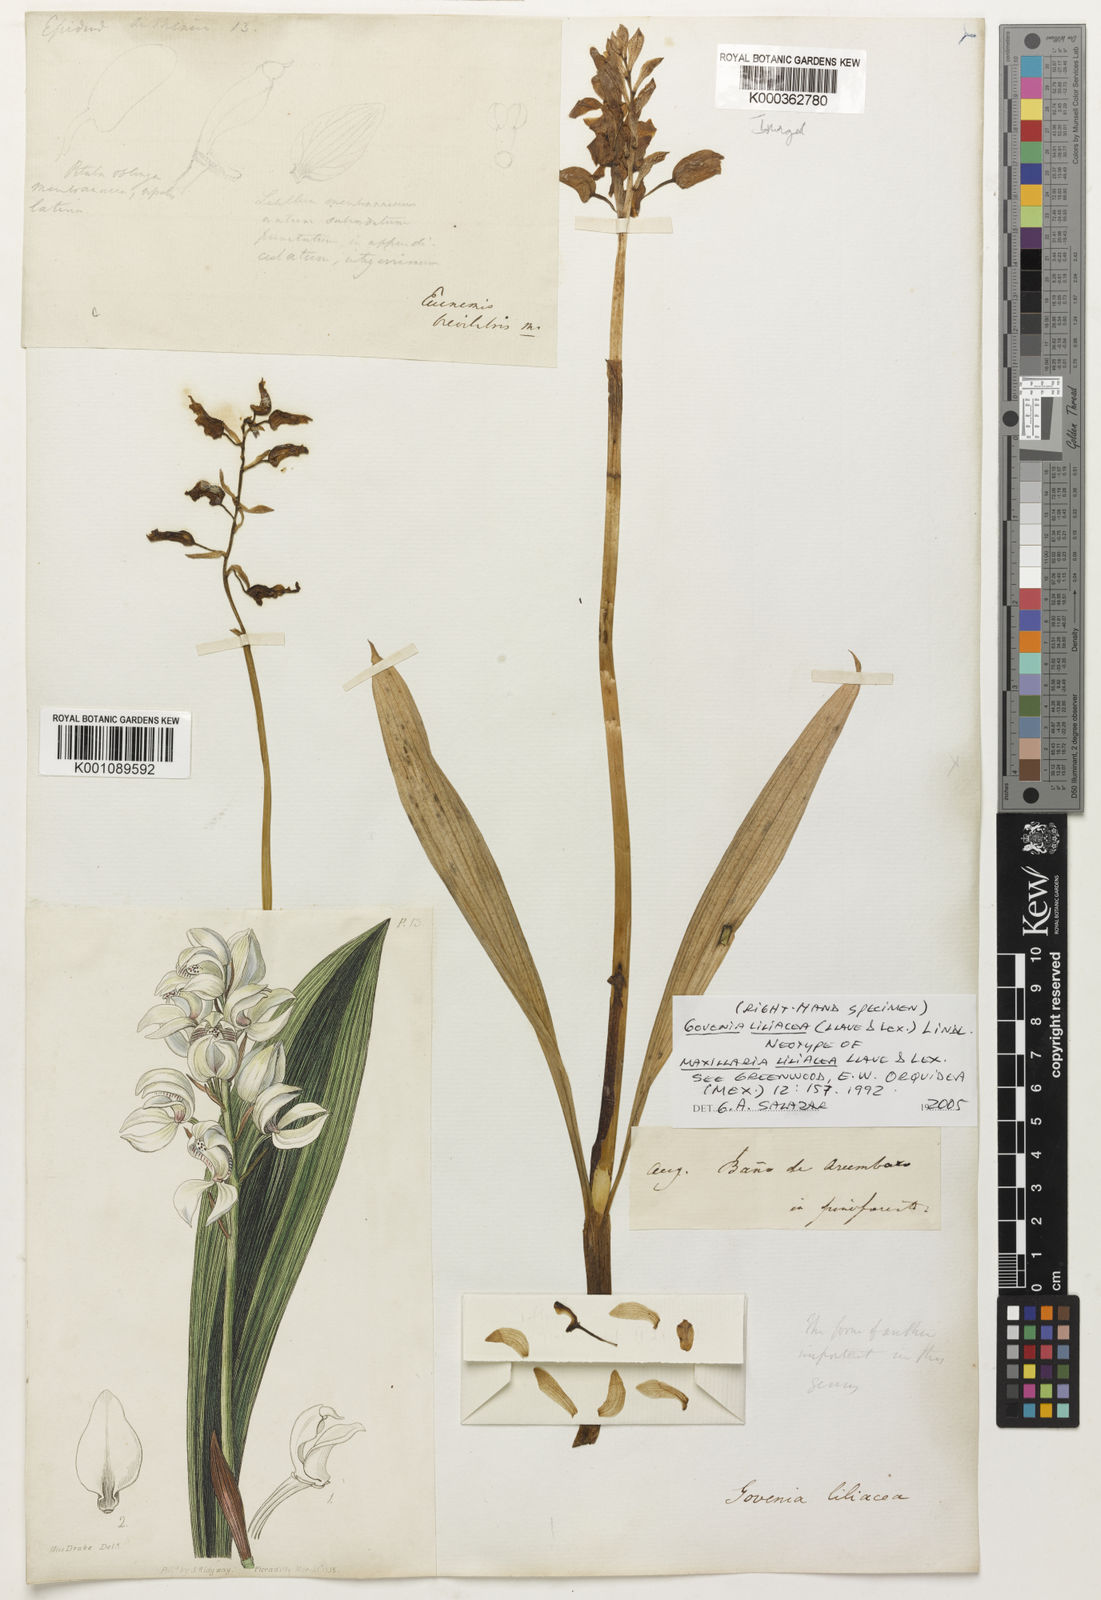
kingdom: Plantae
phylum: Tracheophyta
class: Liliopsida
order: Asparagales
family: Orchidaceae
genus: Govenia
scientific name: Govenia liliacea
